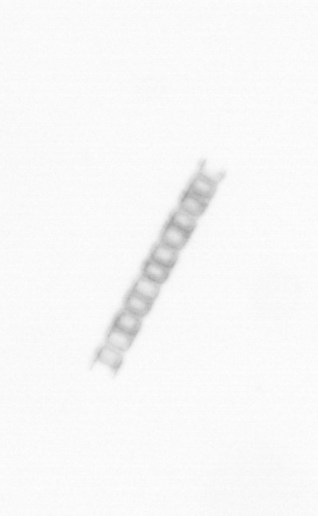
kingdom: Chromista
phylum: Ochrophyta
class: Bacillariophyceae
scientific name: Bacillariophyceae
